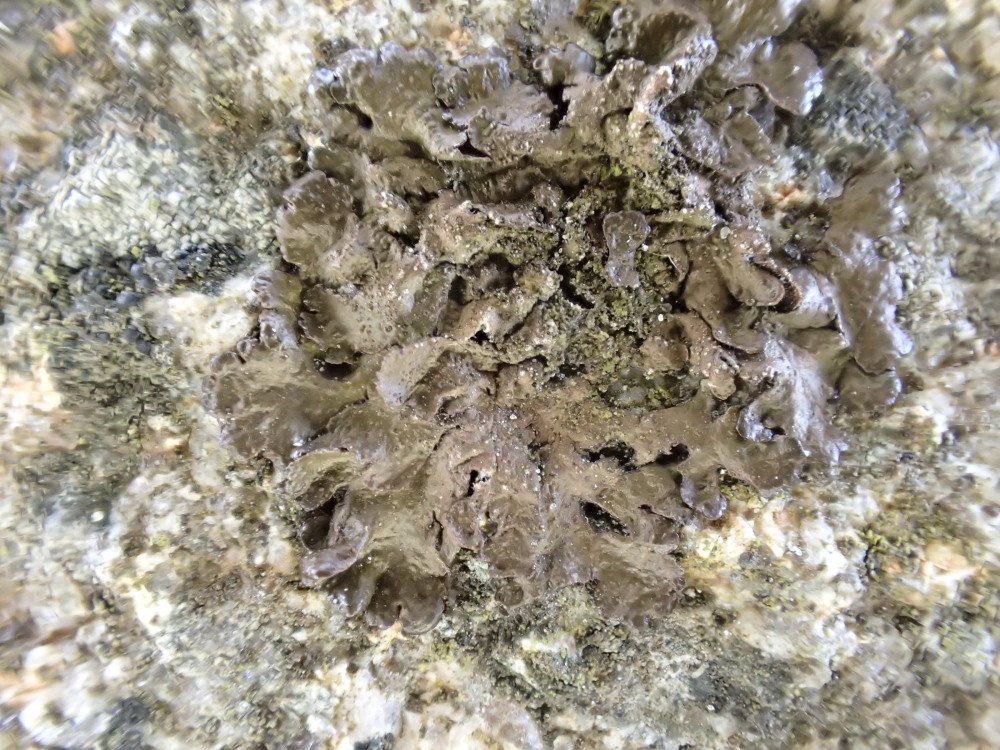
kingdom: Fungi
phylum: Ascomycota
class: Lecanoromycetes
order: Lecanorales
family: Parmeliaceae
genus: Melanelixia
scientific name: Melanelixia subaurifera
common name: guldpudret skållav
